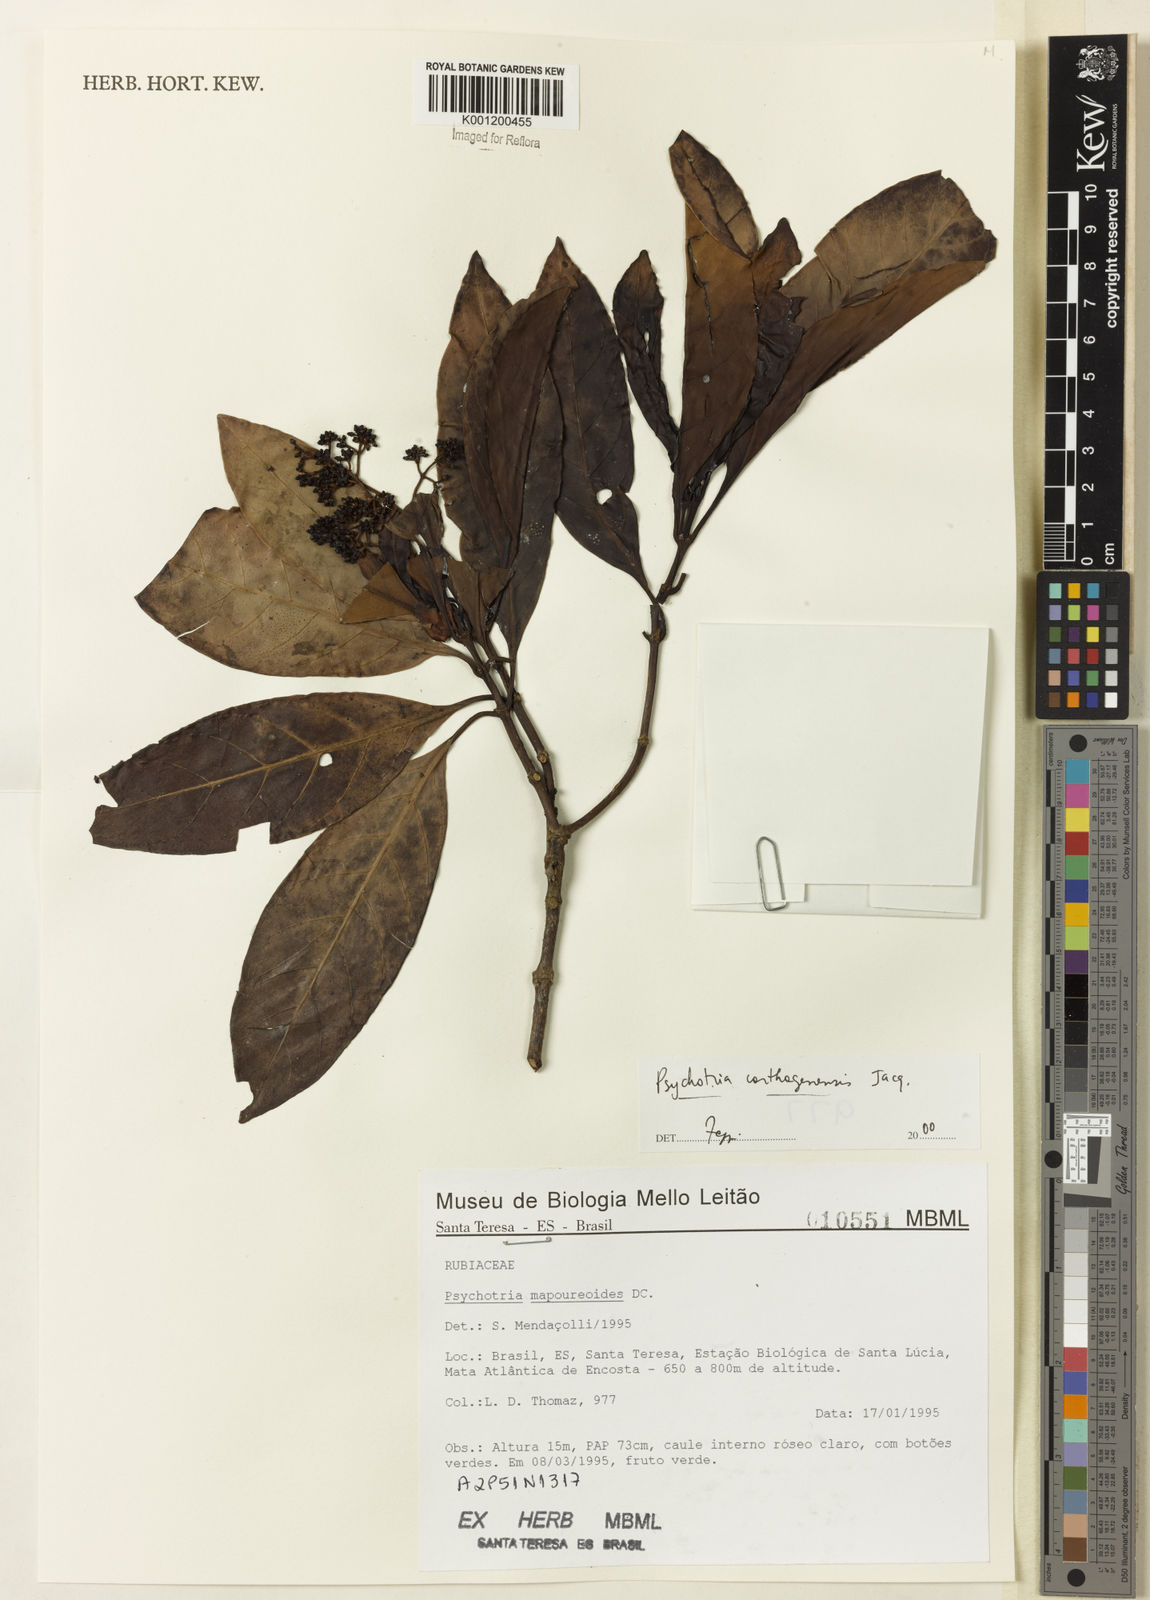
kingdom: Plantae
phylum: Tracheophyta
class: Magnoliopsida
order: Gentianales
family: Rubiaceae
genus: Psychotria
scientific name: Psychotria carthagenensis
